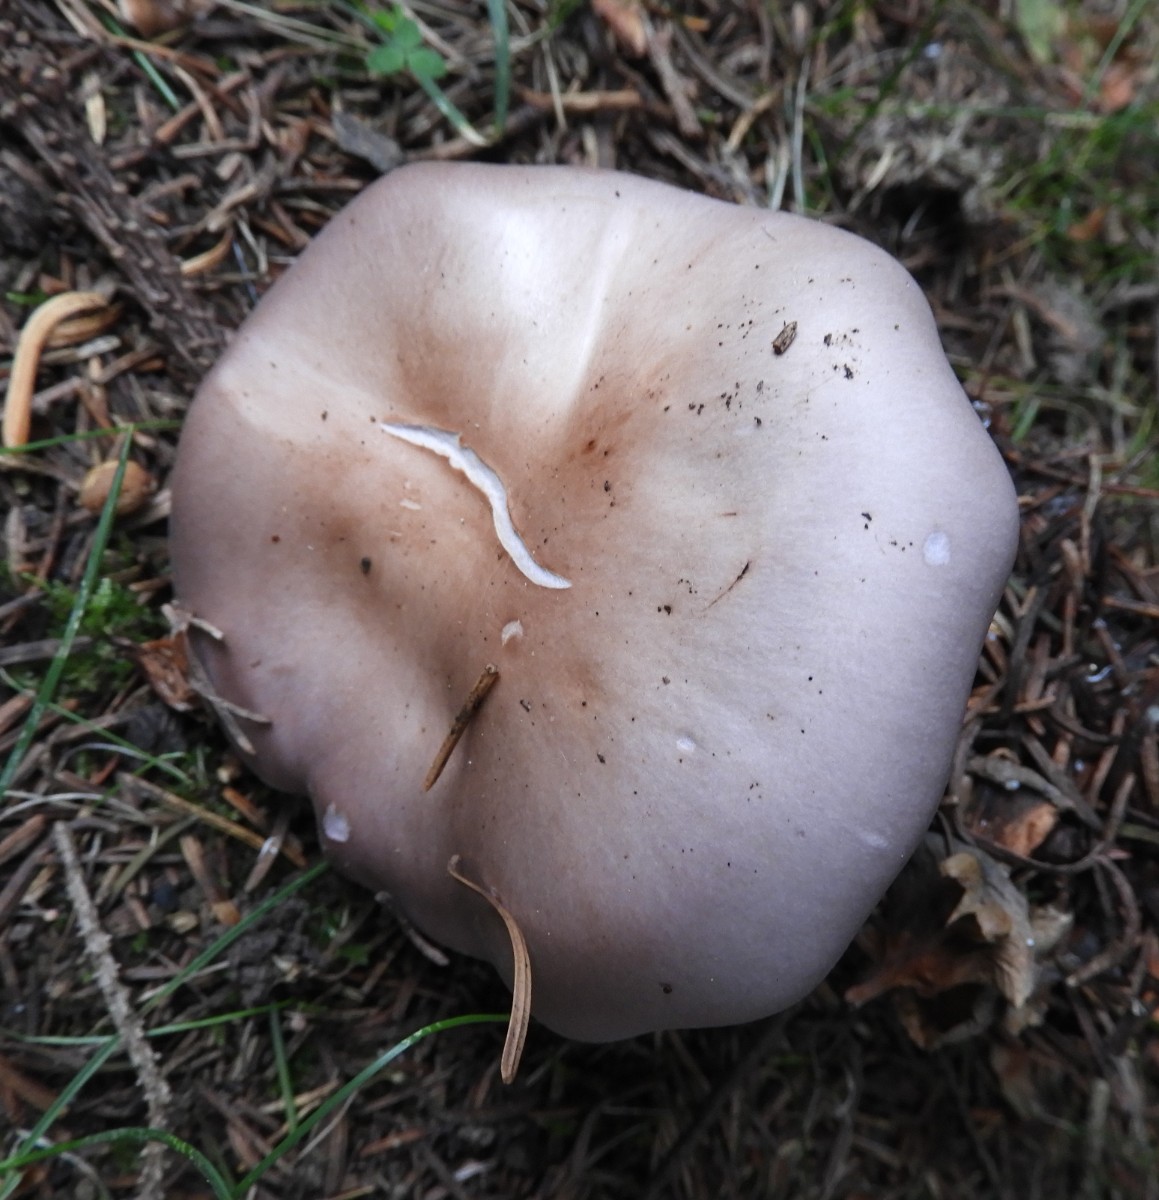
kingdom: Fungi
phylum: Basidiomycota
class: Agaricomycetes
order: Agaricales
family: Tricholomataceae
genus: Lepista
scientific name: Lepista nuda
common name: violet hekseringshat
